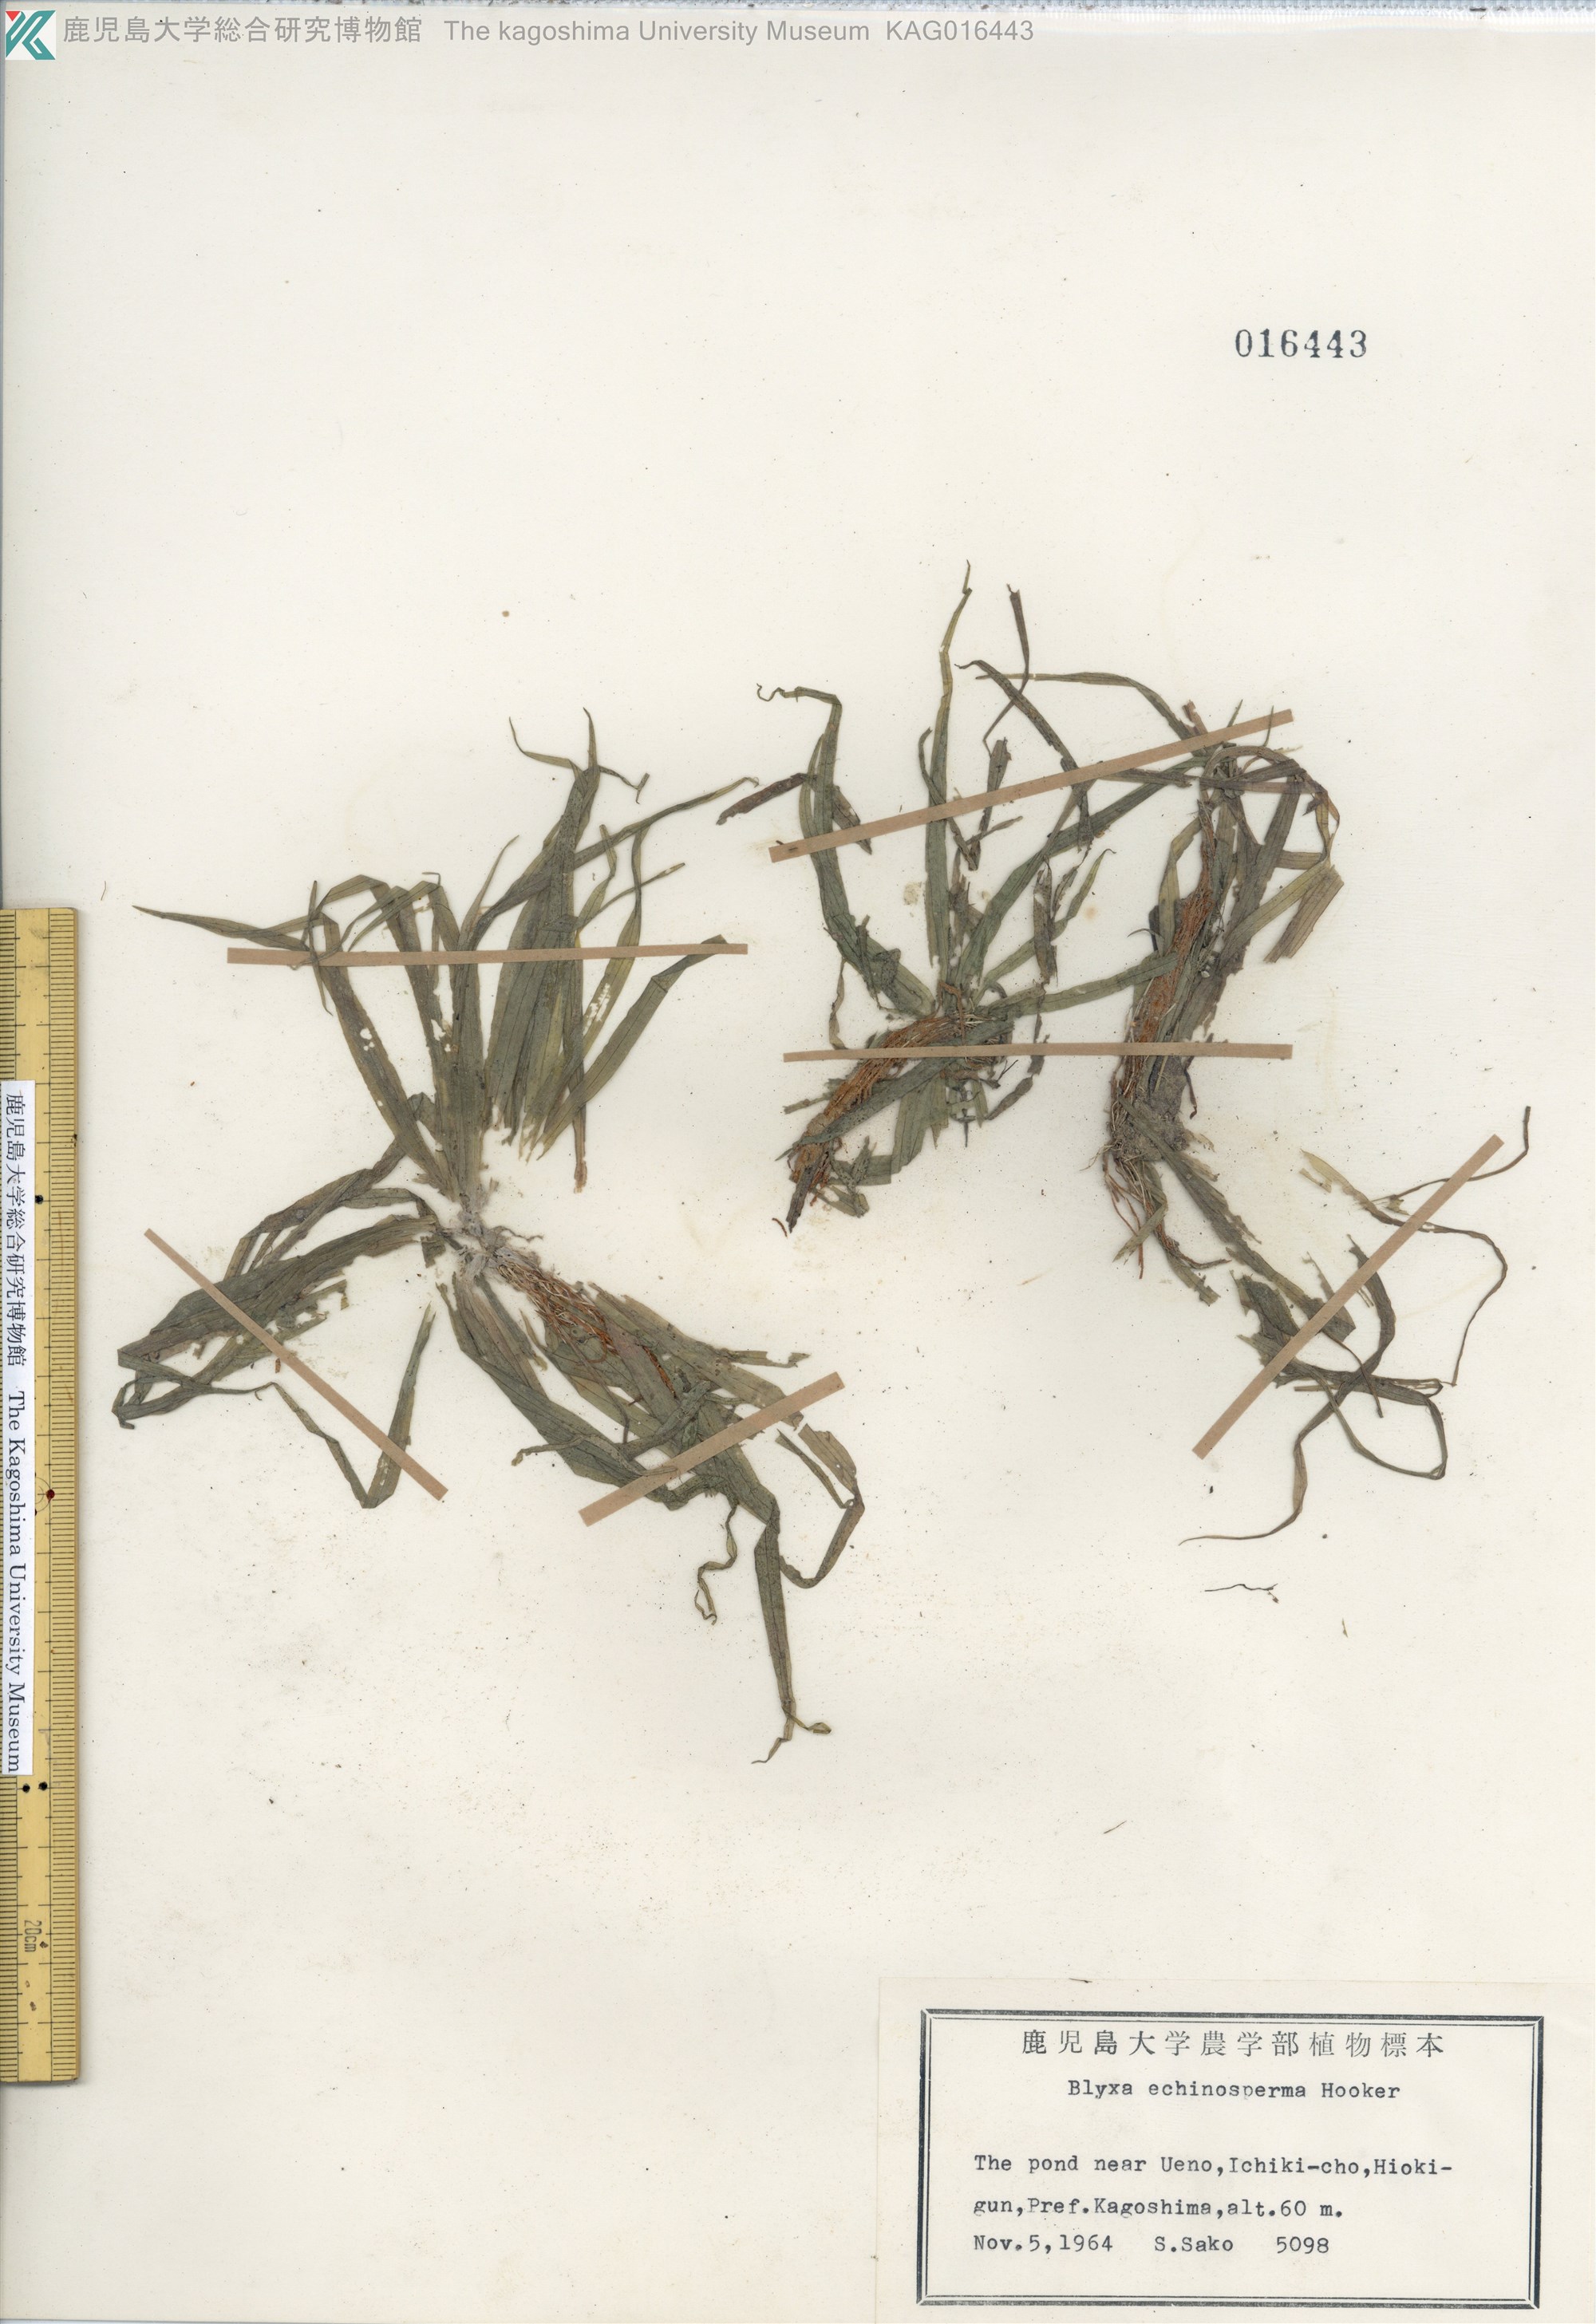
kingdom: Plantae
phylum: Tracheophyta
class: Liliopsida
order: Alismatales
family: Hydrocharitaceae
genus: Blyxa
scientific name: Blyxa echinosperma
